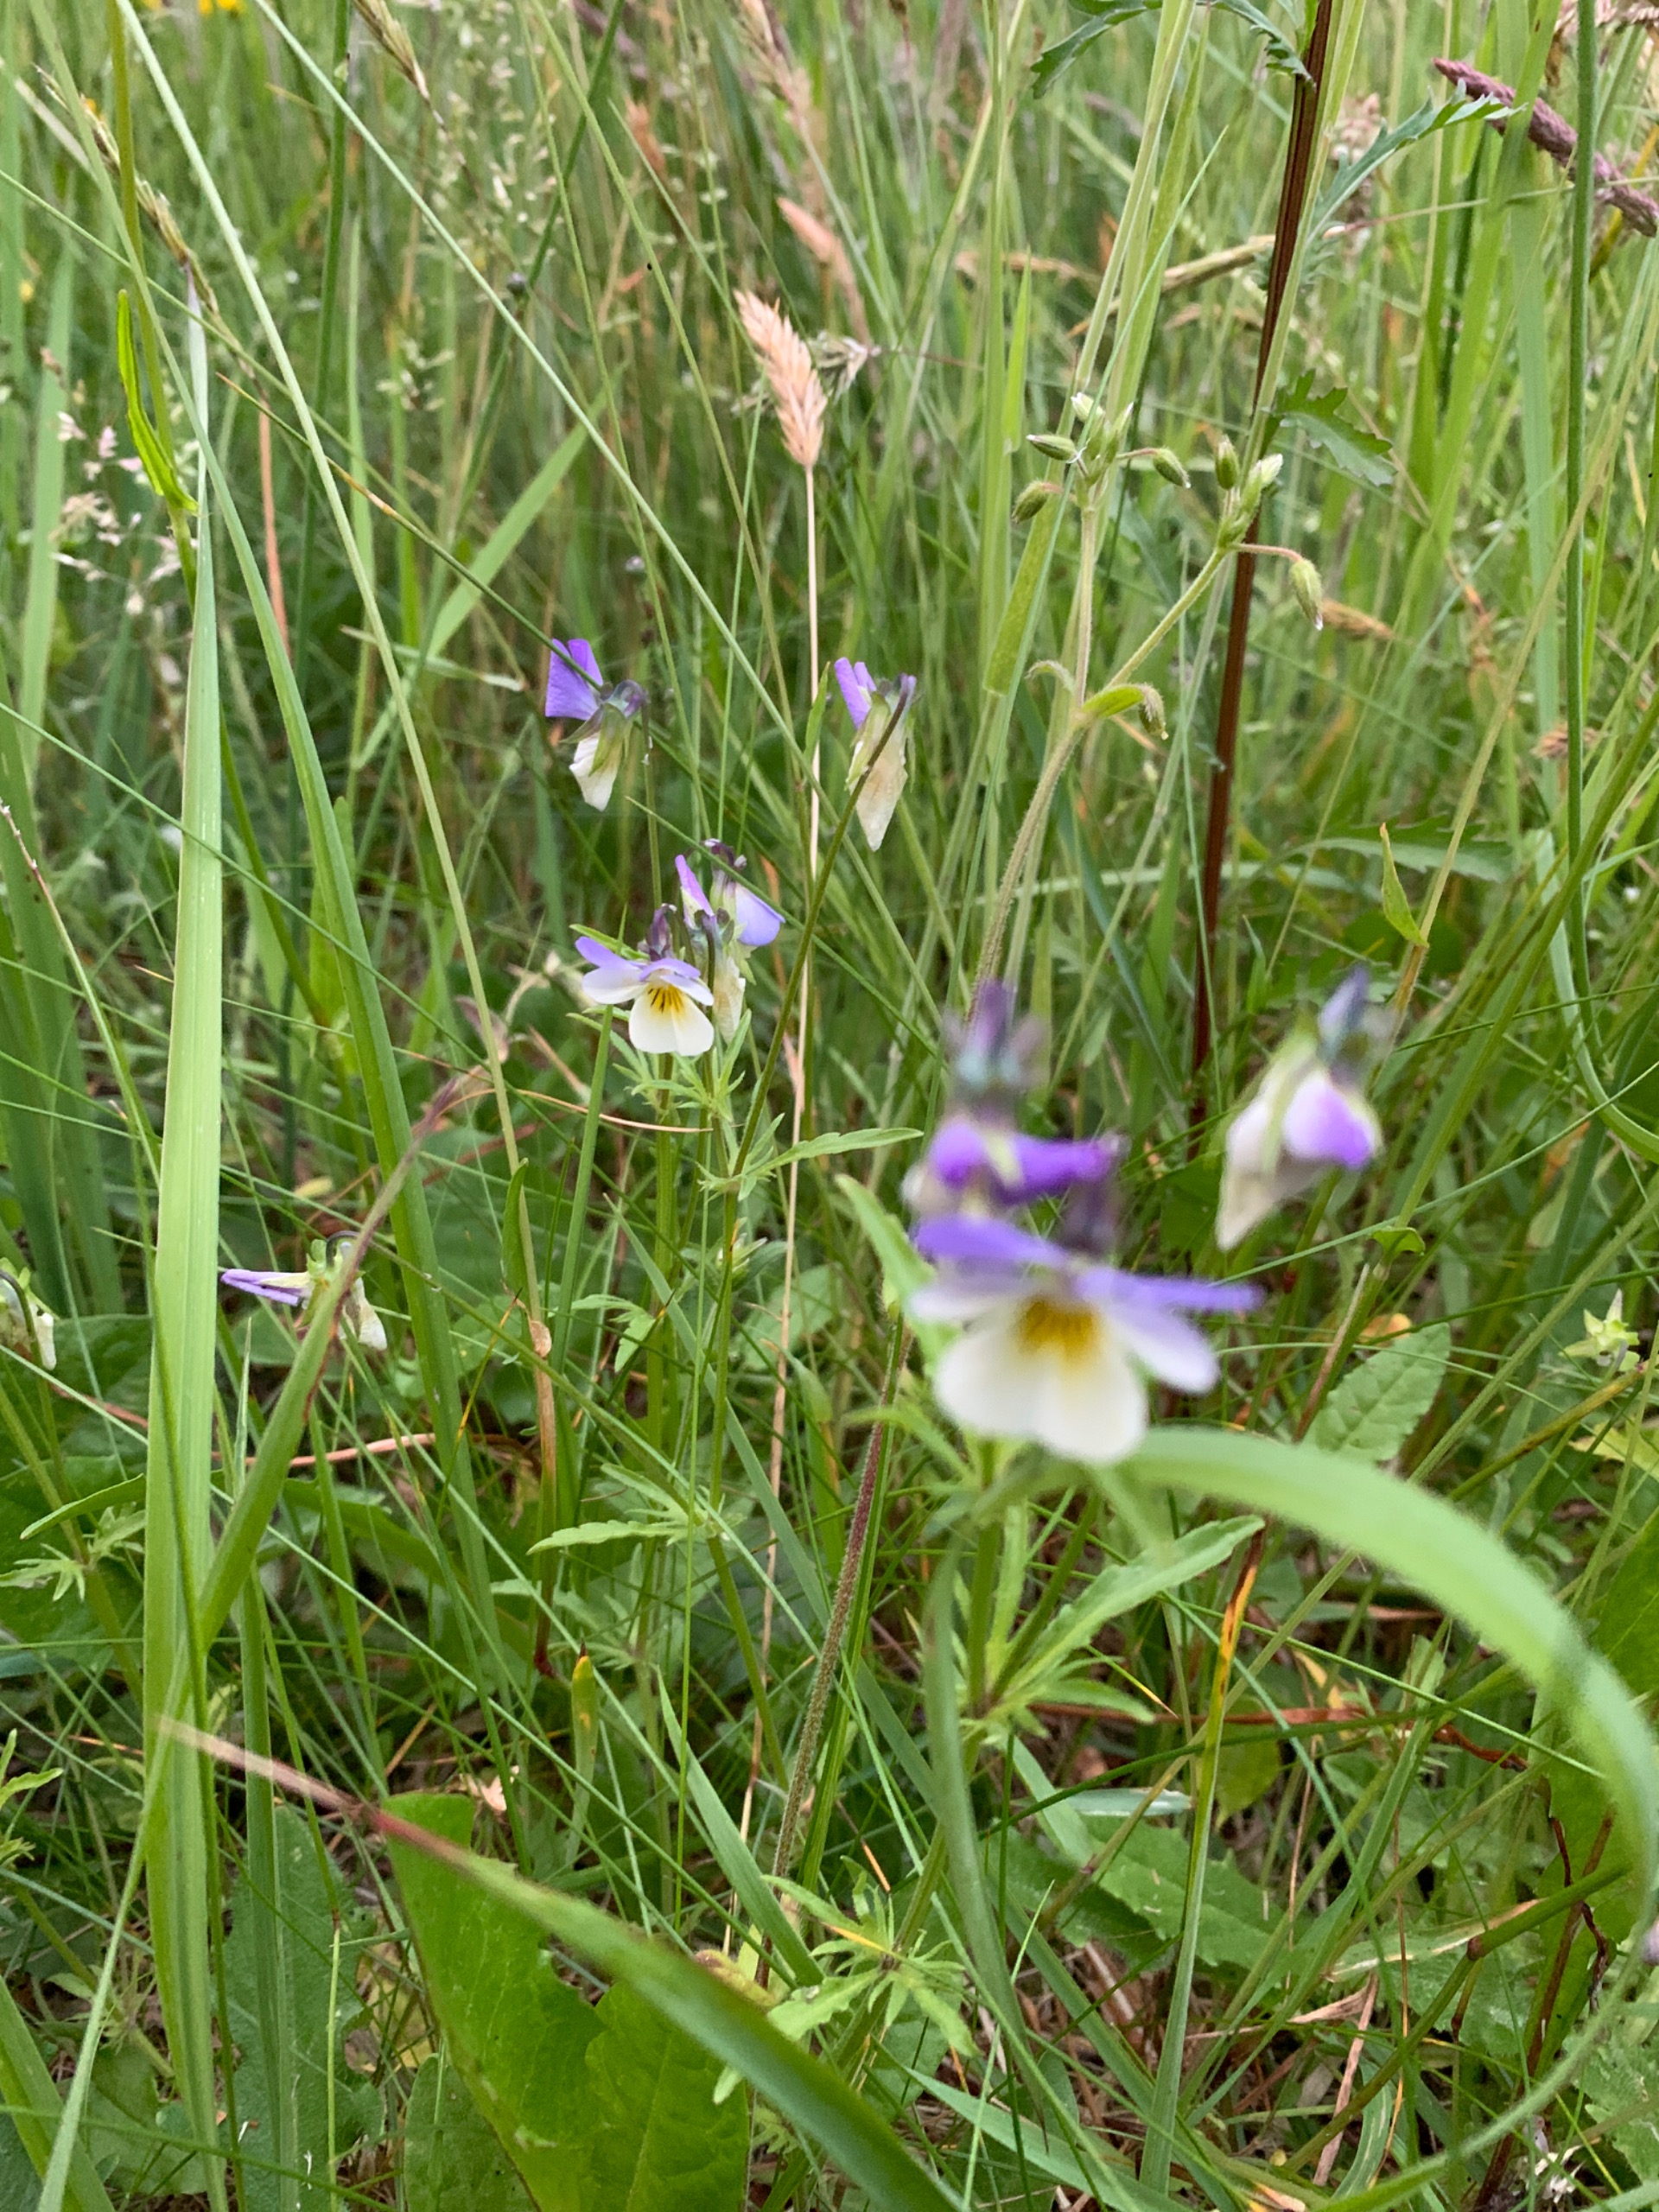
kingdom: Plantae
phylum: Tracheophyta
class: Magnoliopsida
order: Malpighiales
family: Violaceae
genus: Viola
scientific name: Viola tricolor
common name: Stedmoderblomst
